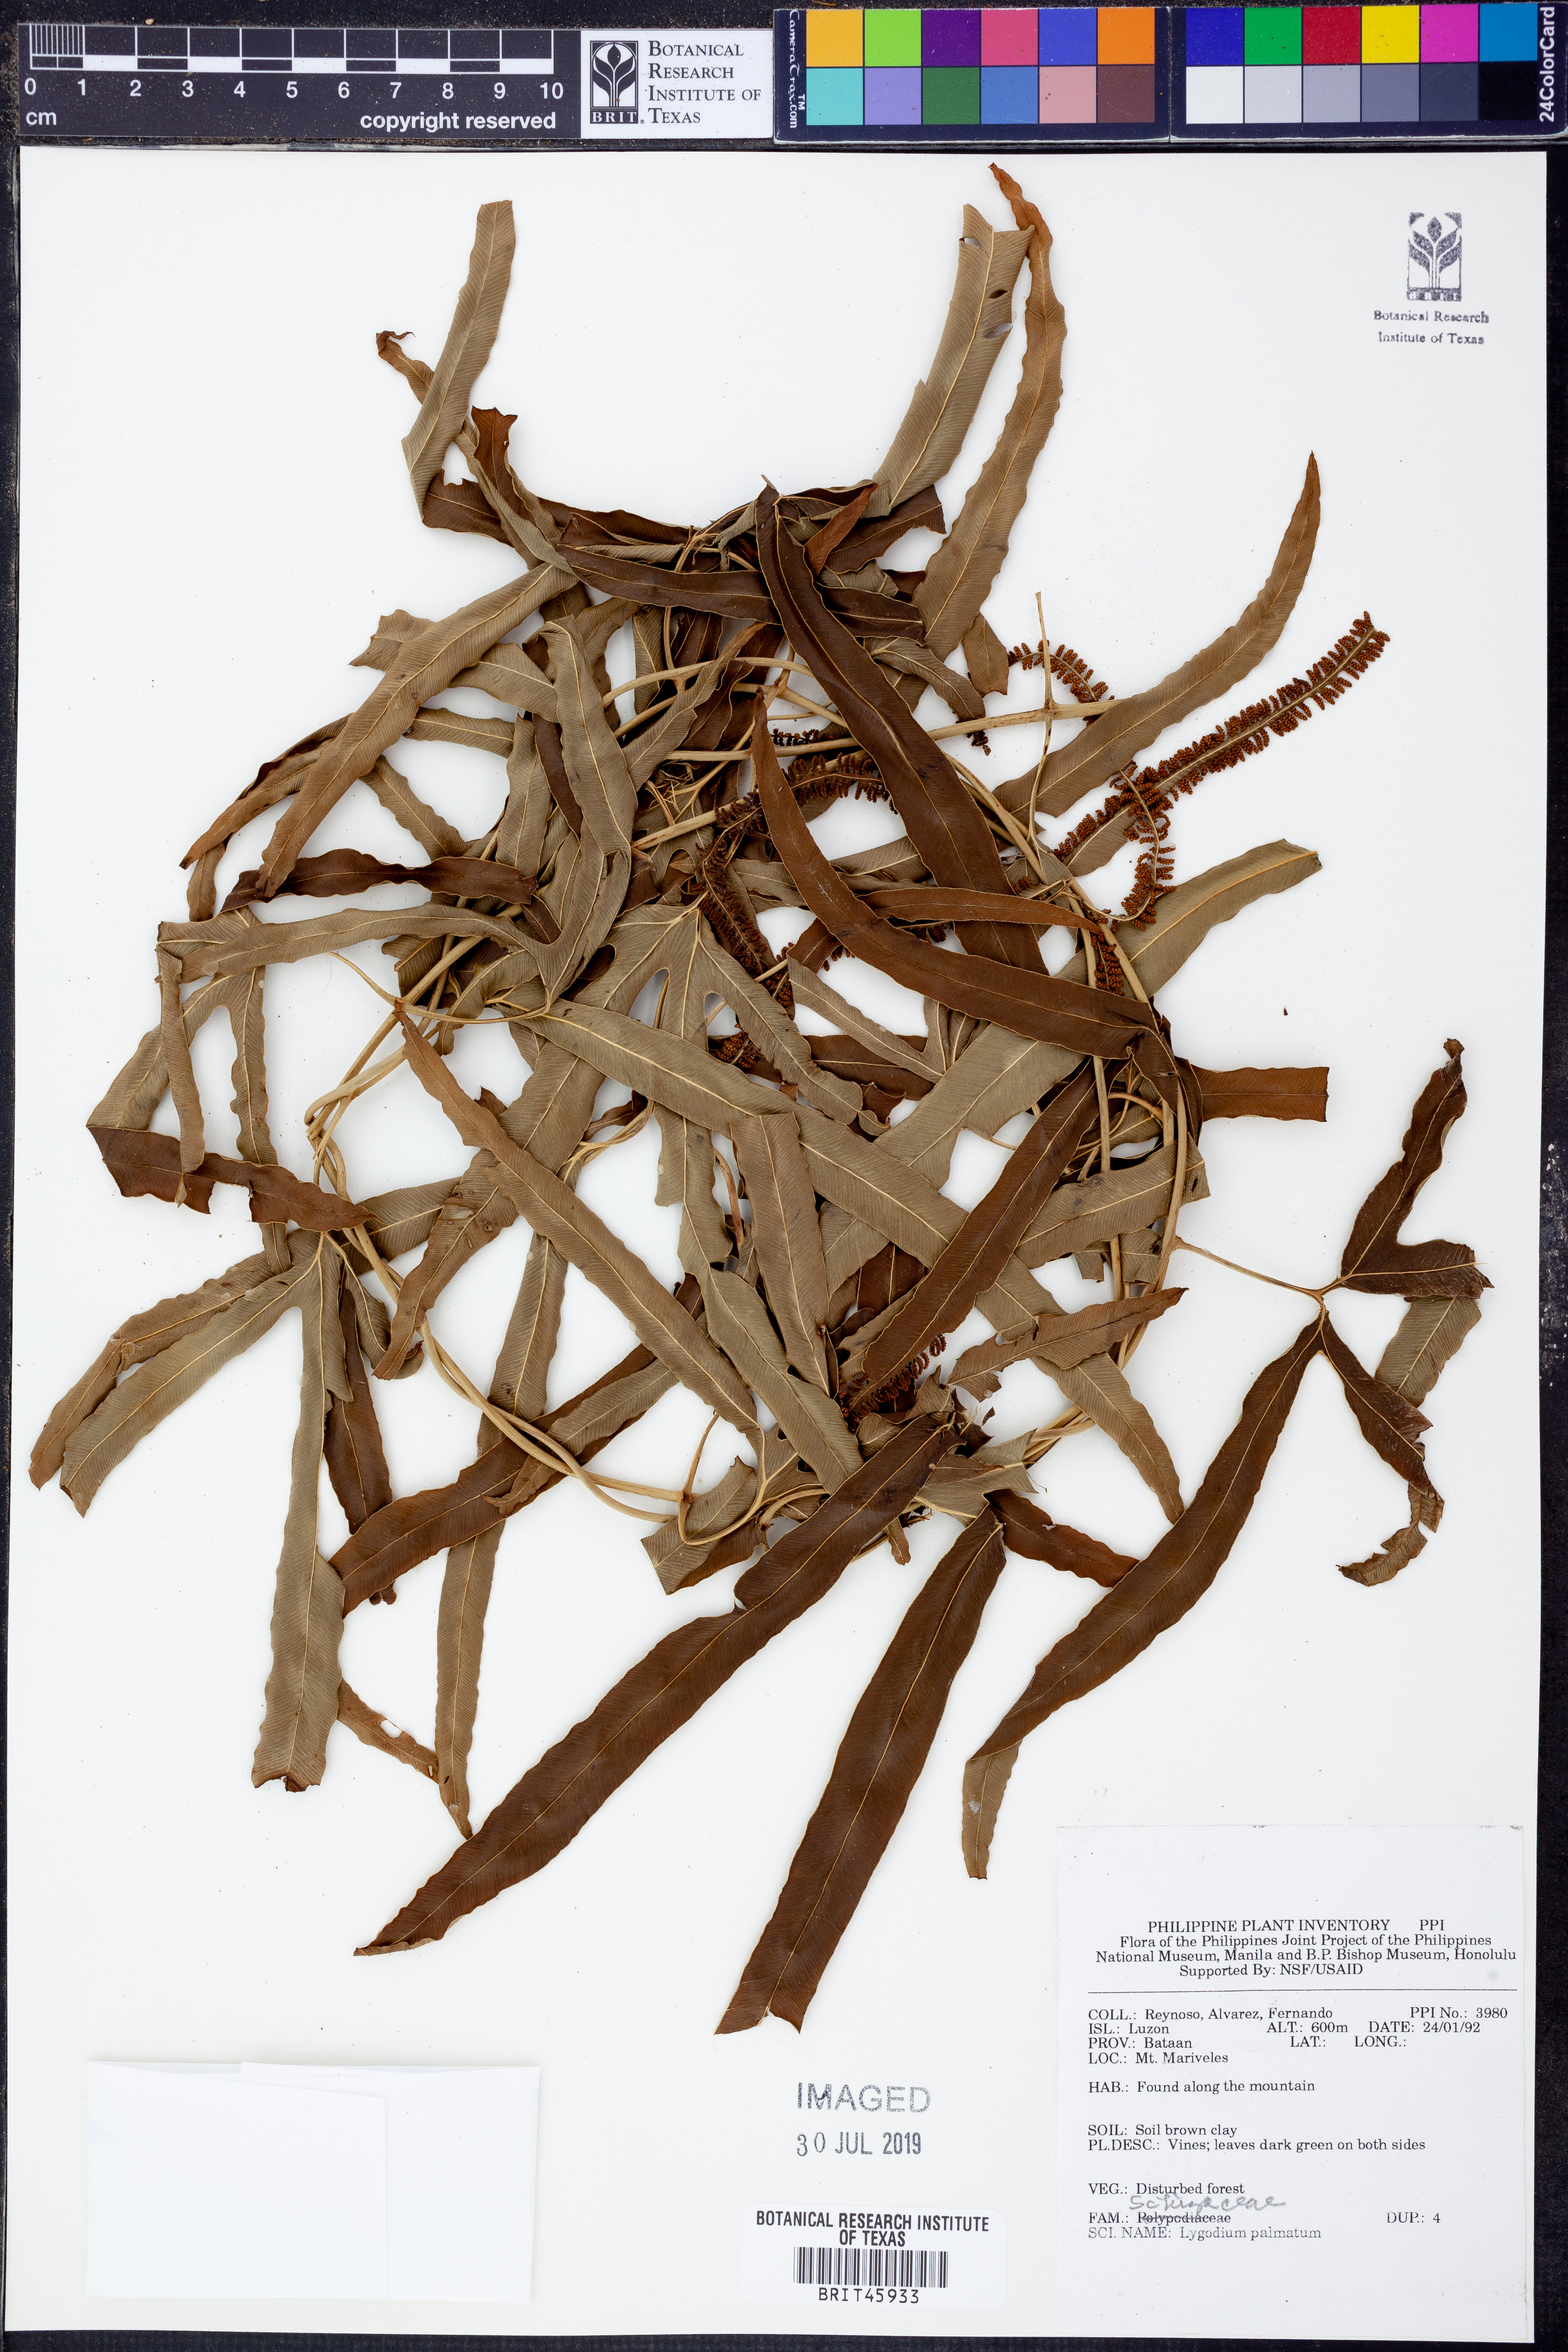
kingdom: Plantae
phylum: Tracheophyta
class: Polypodiopsida
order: Schizaeales
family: Lygodiaceae
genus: Lygodium
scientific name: Lygodium palmatum
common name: American climbing fern
